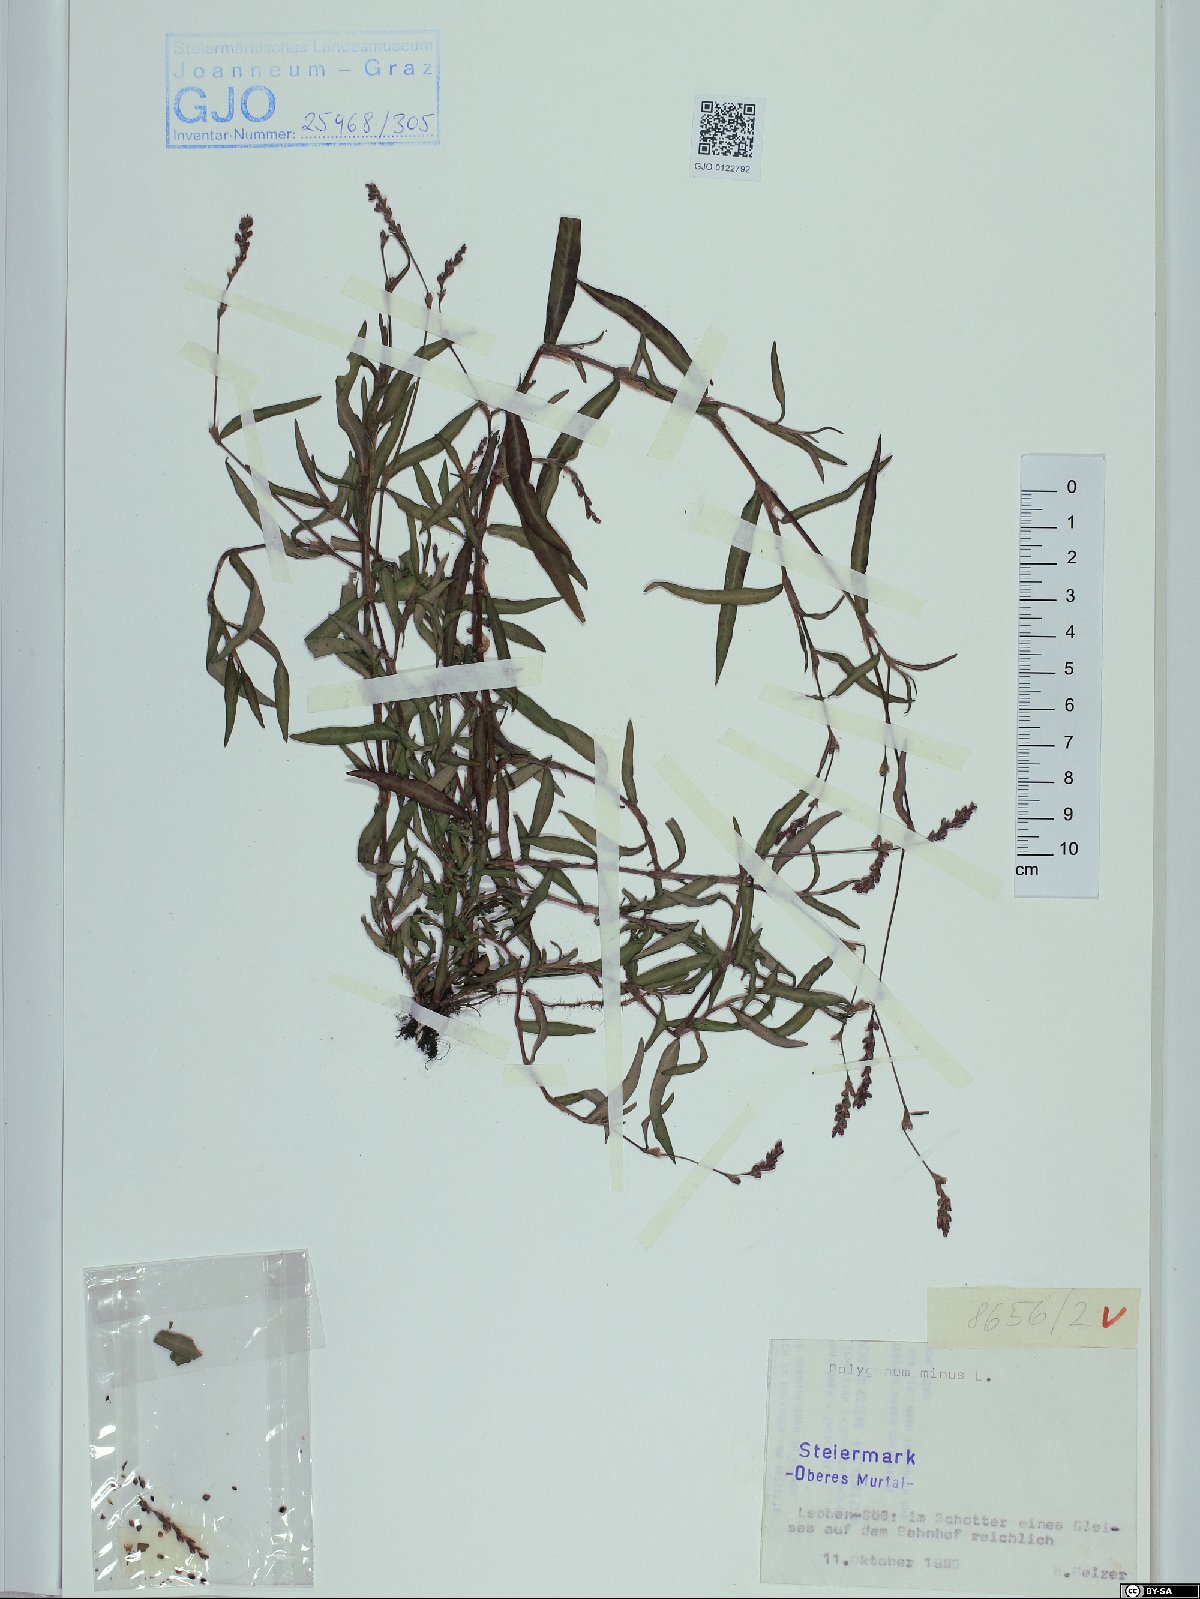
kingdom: Plantae
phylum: Tracheophyta
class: Magnoliopsida
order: Caryophyllales
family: Polygonaceae
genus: Persicaria
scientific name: Persicaria minor
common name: Small water-pepper
